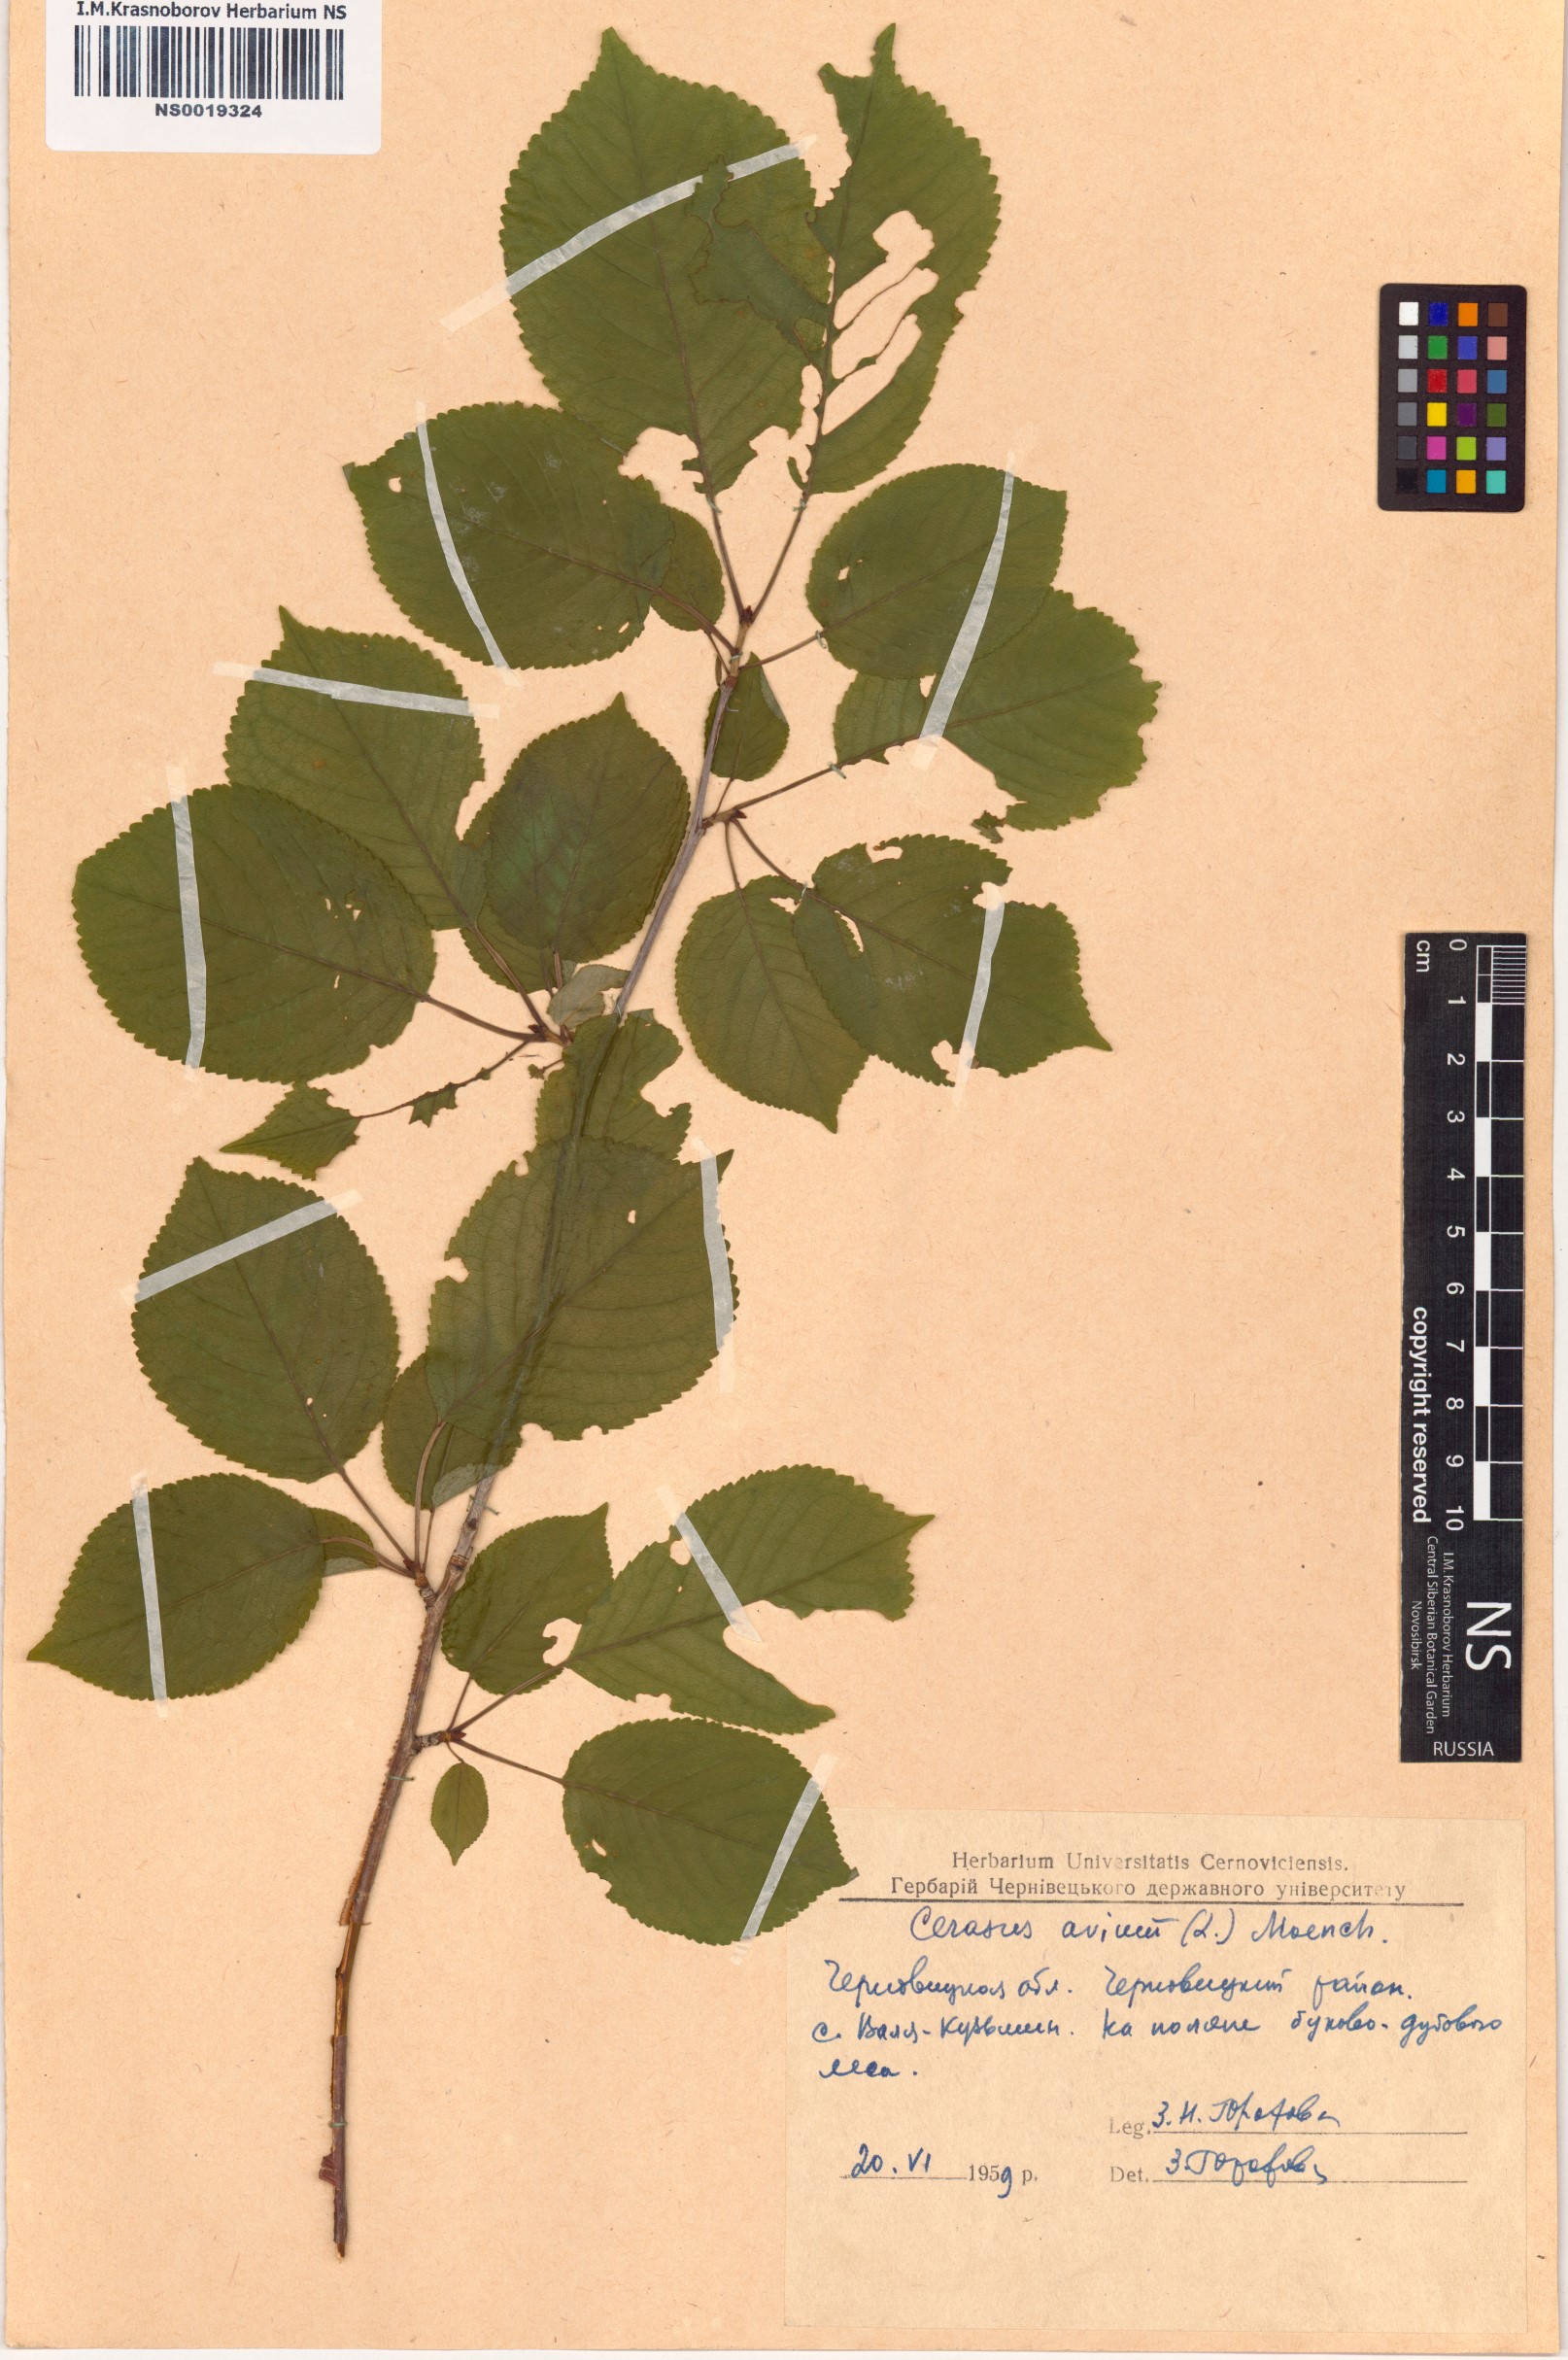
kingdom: Plantae
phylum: Tracheophyta
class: Magnoliopsida
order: Rosales
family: Rosaceae
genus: Prunus
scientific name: Prunus avium
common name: Sweet cherry
